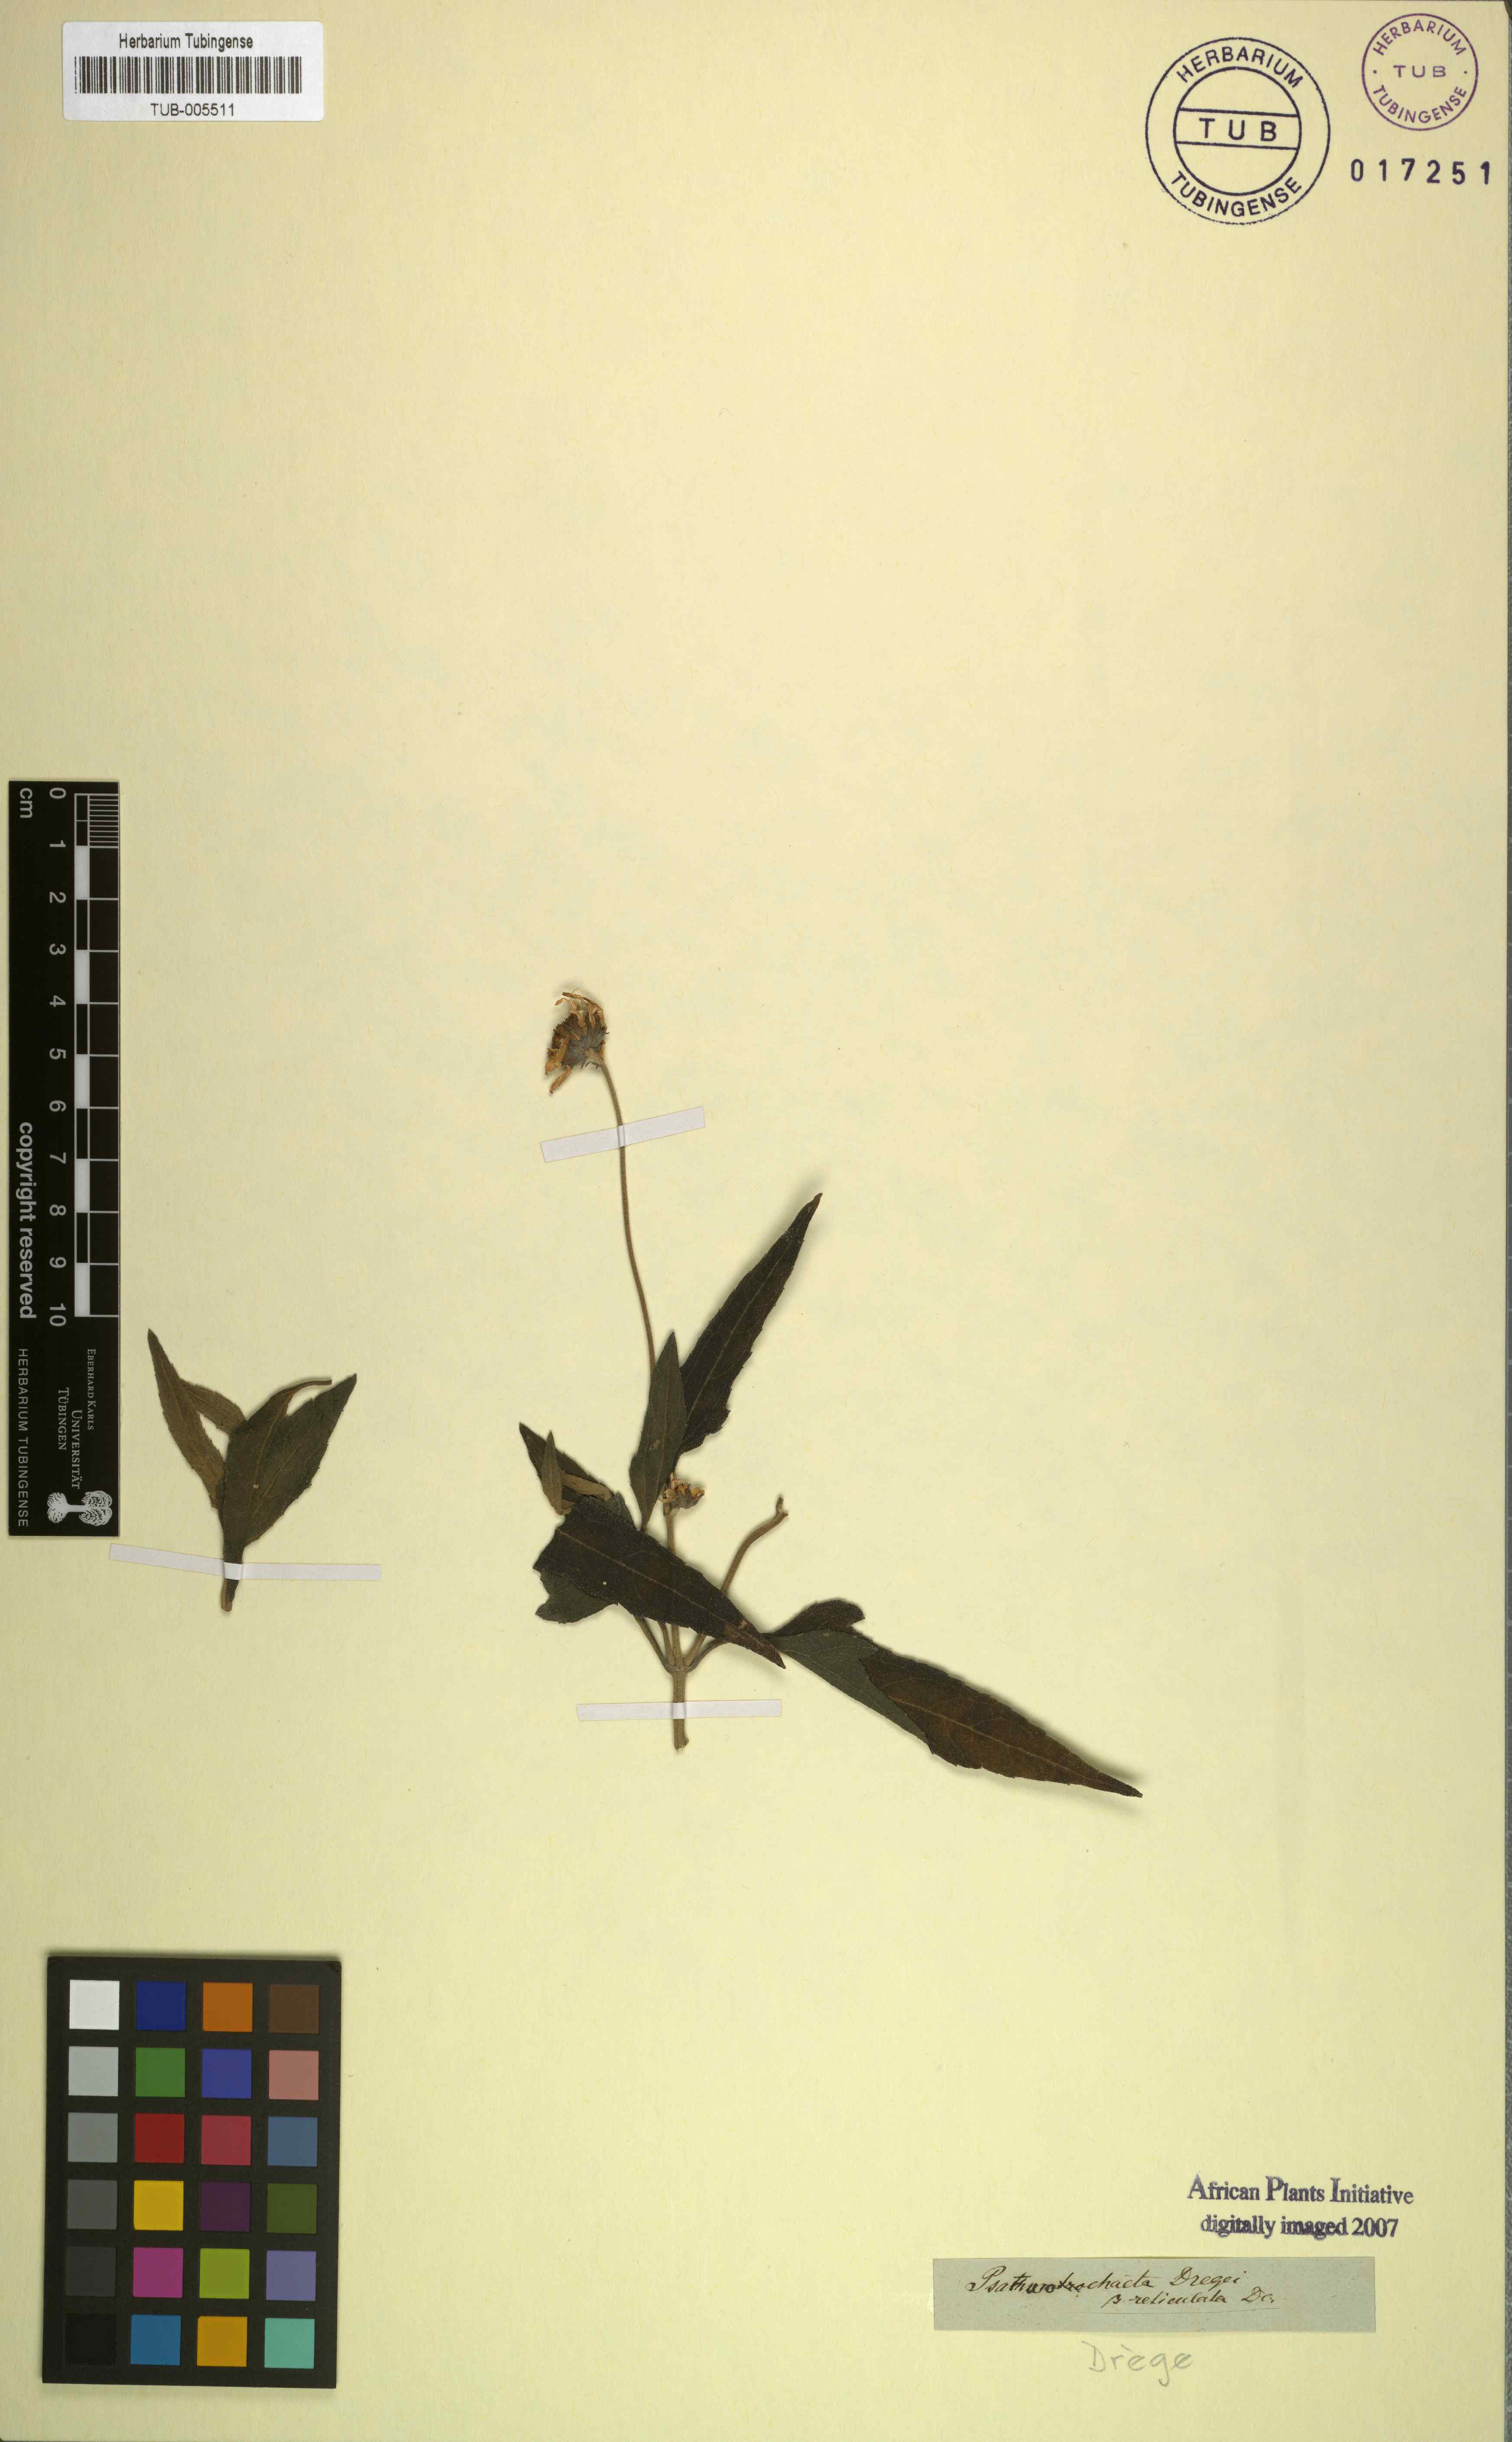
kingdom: Plantae
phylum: Tracheophyta
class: Magnoliopsida
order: Asterales
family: Asteraceae
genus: Lipotriche
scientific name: Lipotriche scandens
